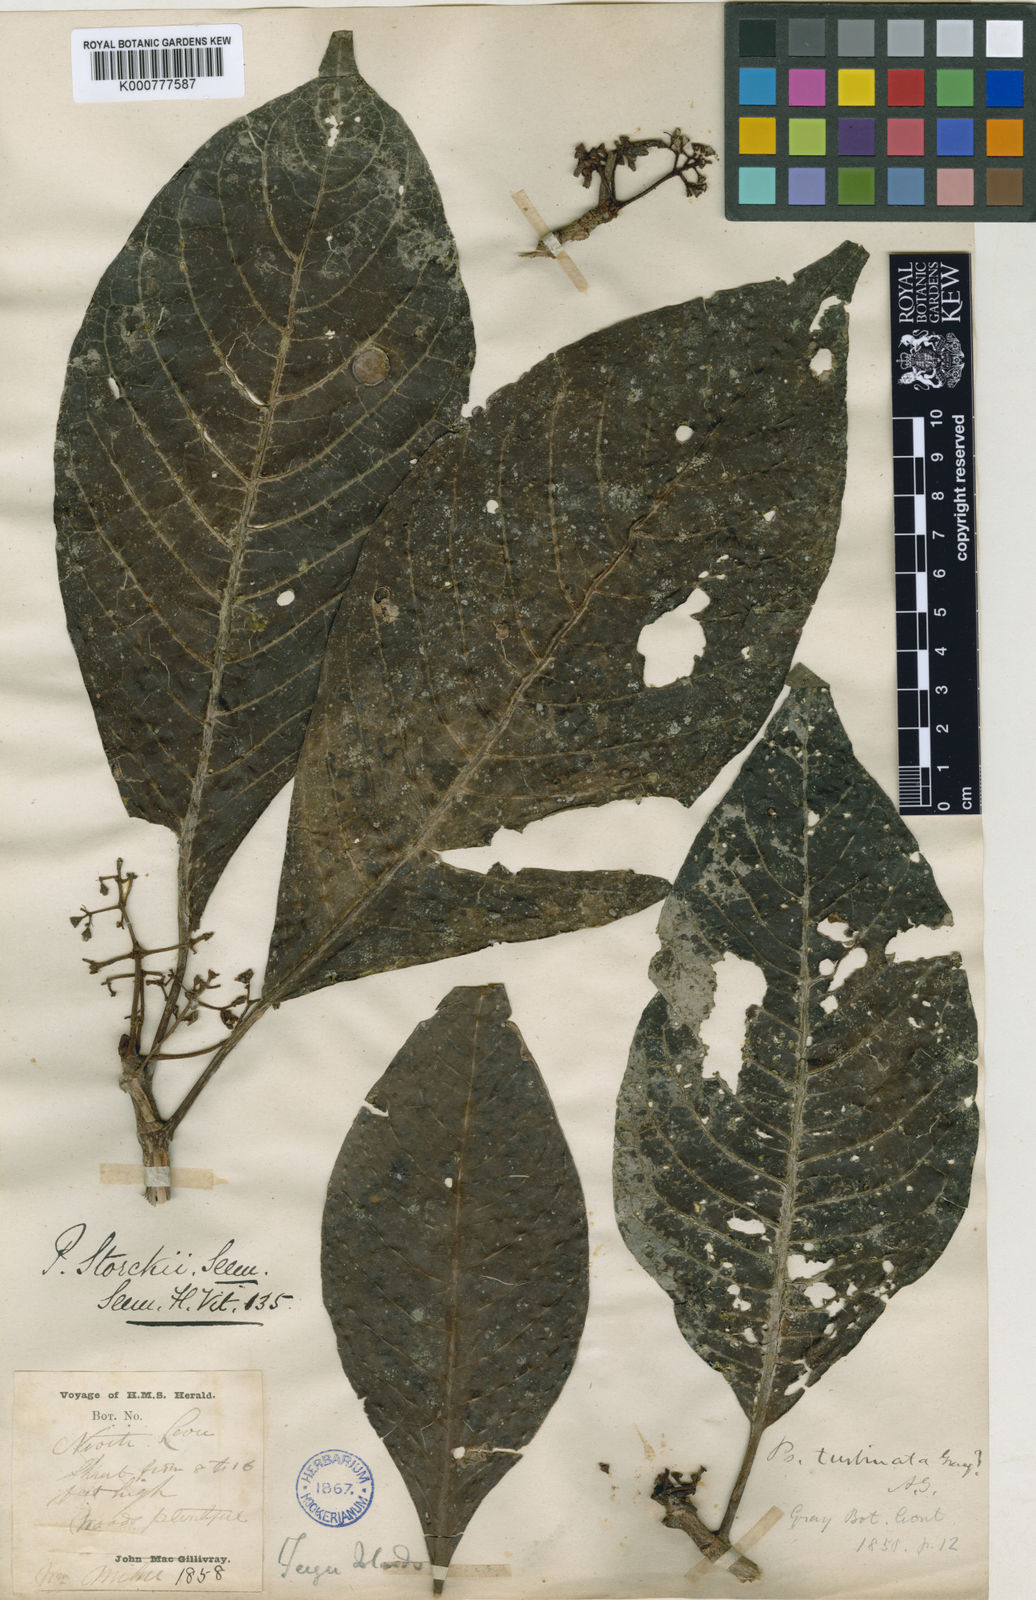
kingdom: Plantae
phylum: Tracheophyta
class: Magnoliopsida
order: Gentianales
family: Rubiaceae
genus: Psychotria
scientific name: Psychotria storckii
